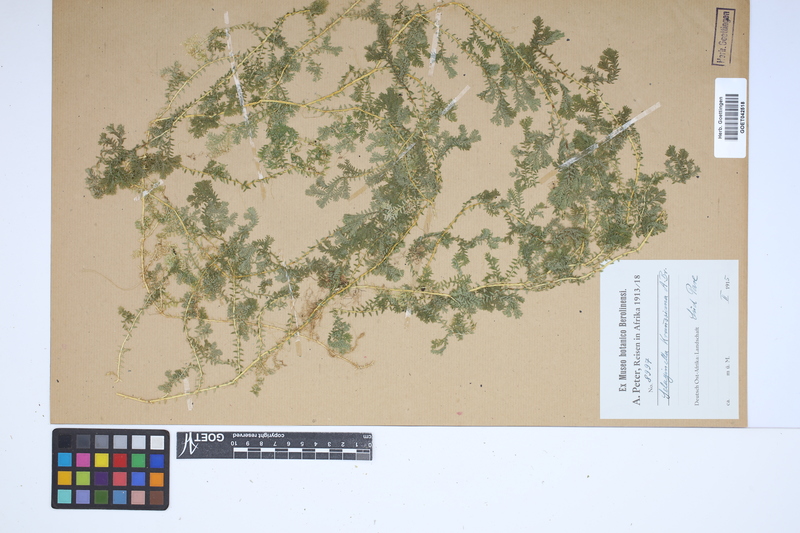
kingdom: Plantae
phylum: Tracheophyta
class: Lycopodiopsida
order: Selaginellales
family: Selaginellaceae
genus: Selaginella
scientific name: Selaginella kraussiana
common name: Krauss' spikemoss
